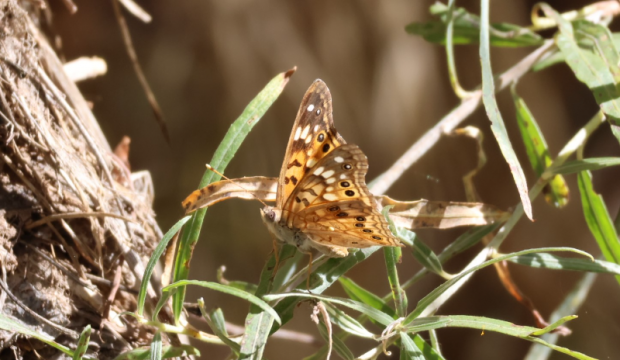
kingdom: Animalia
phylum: Arthropoda
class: Insecta
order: Lepidoptera
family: Nymphalidae
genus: Asterocampa
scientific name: Asterocampa celtis
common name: Hackberry Emperor
